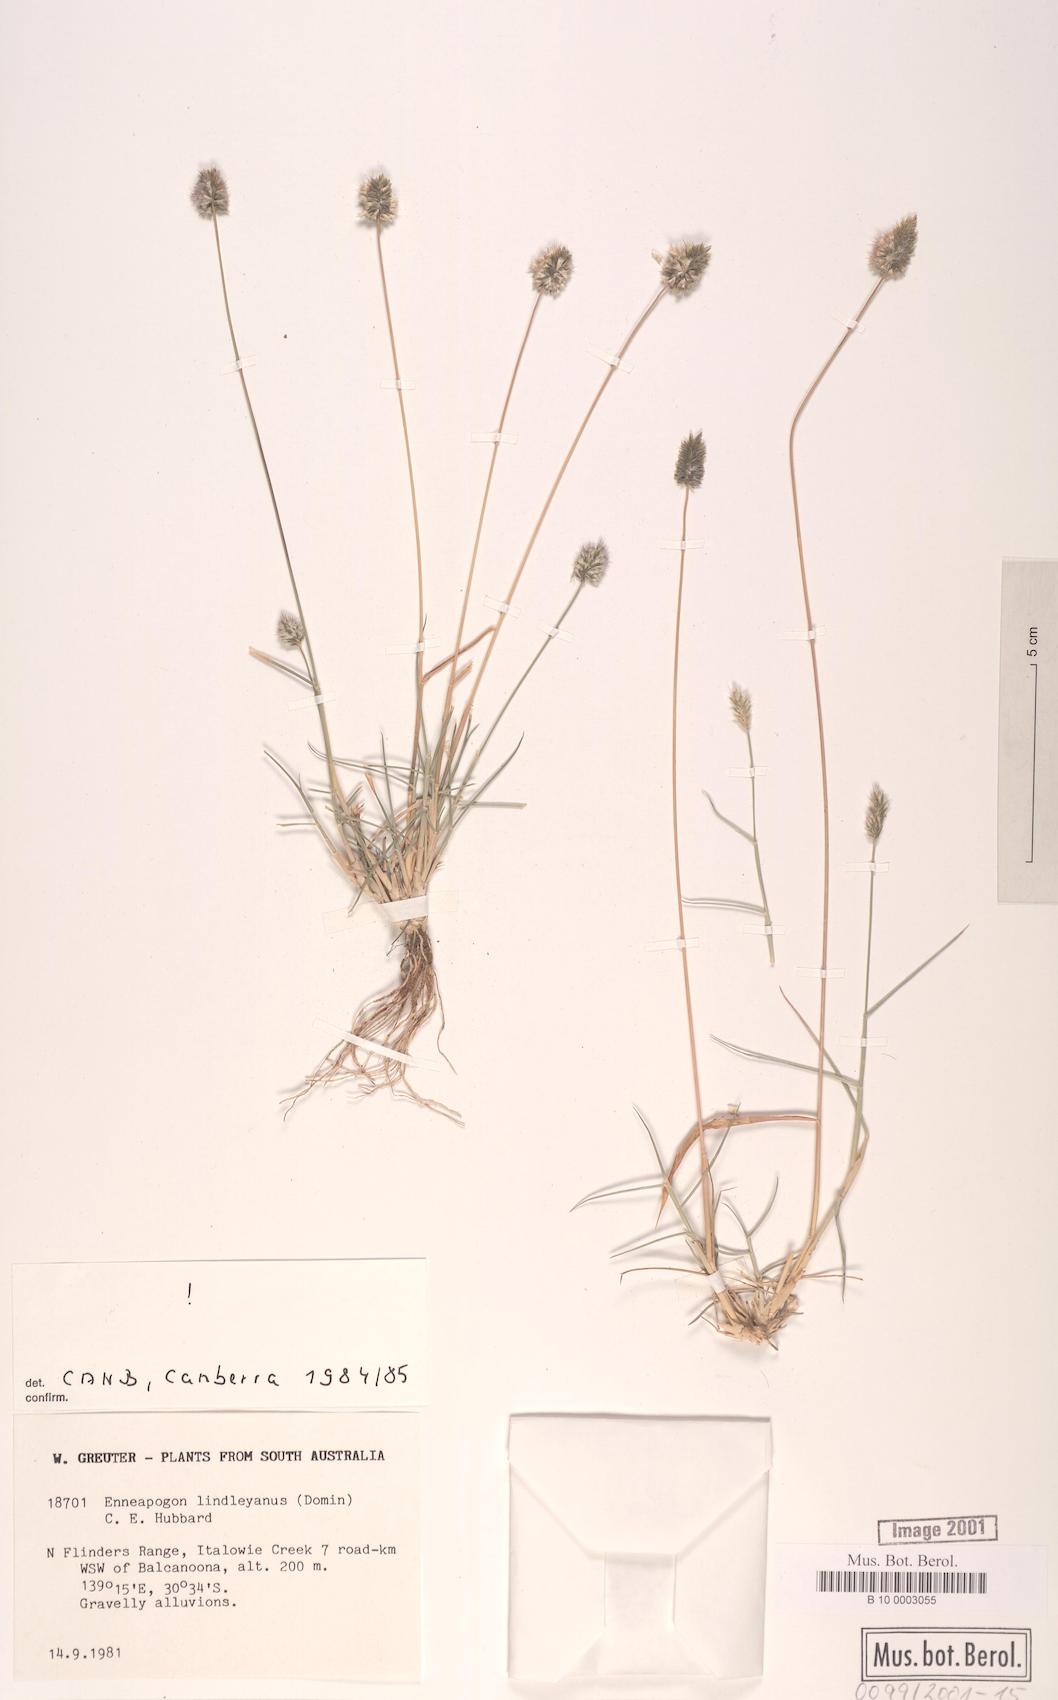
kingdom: Plantae
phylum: Tracheophyta
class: Liliopsida
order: Poales
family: Poaceae
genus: Enneapogon
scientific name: Enneapogon lindleyanus
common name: Conetop nineawn
